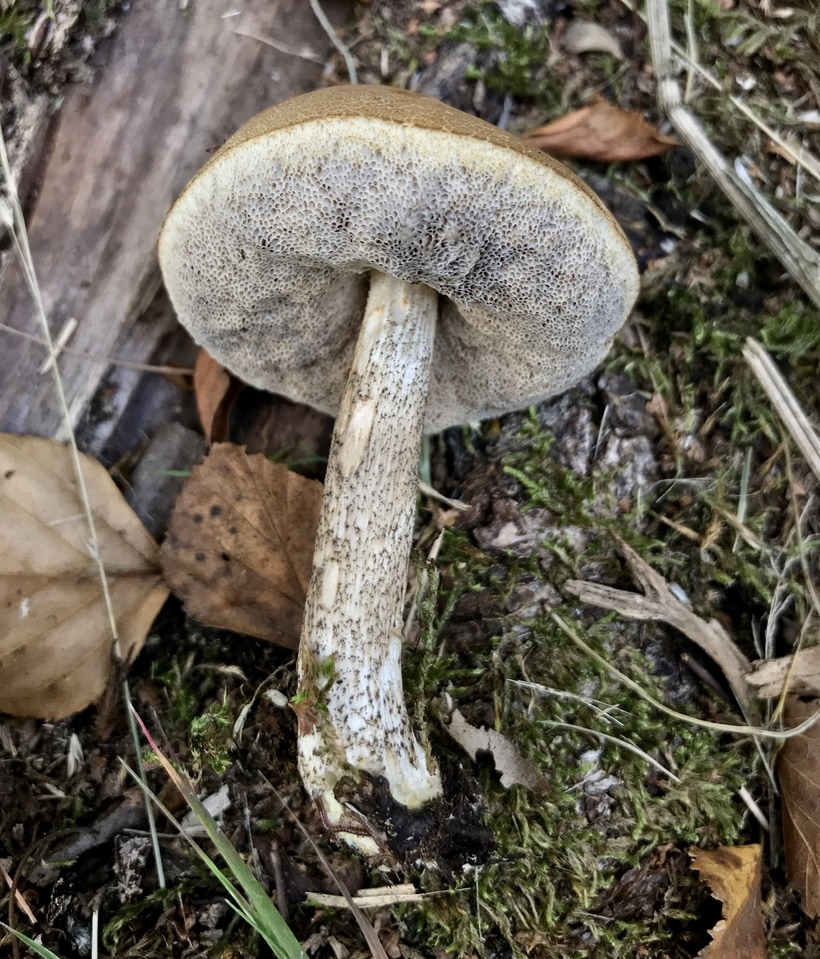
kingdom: Fungi
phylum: Basidiomycota
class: Agaricomycetes
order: Boletales
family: Boletaceae
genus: Leccinum
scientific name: Leccinum
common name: skælrørhat
